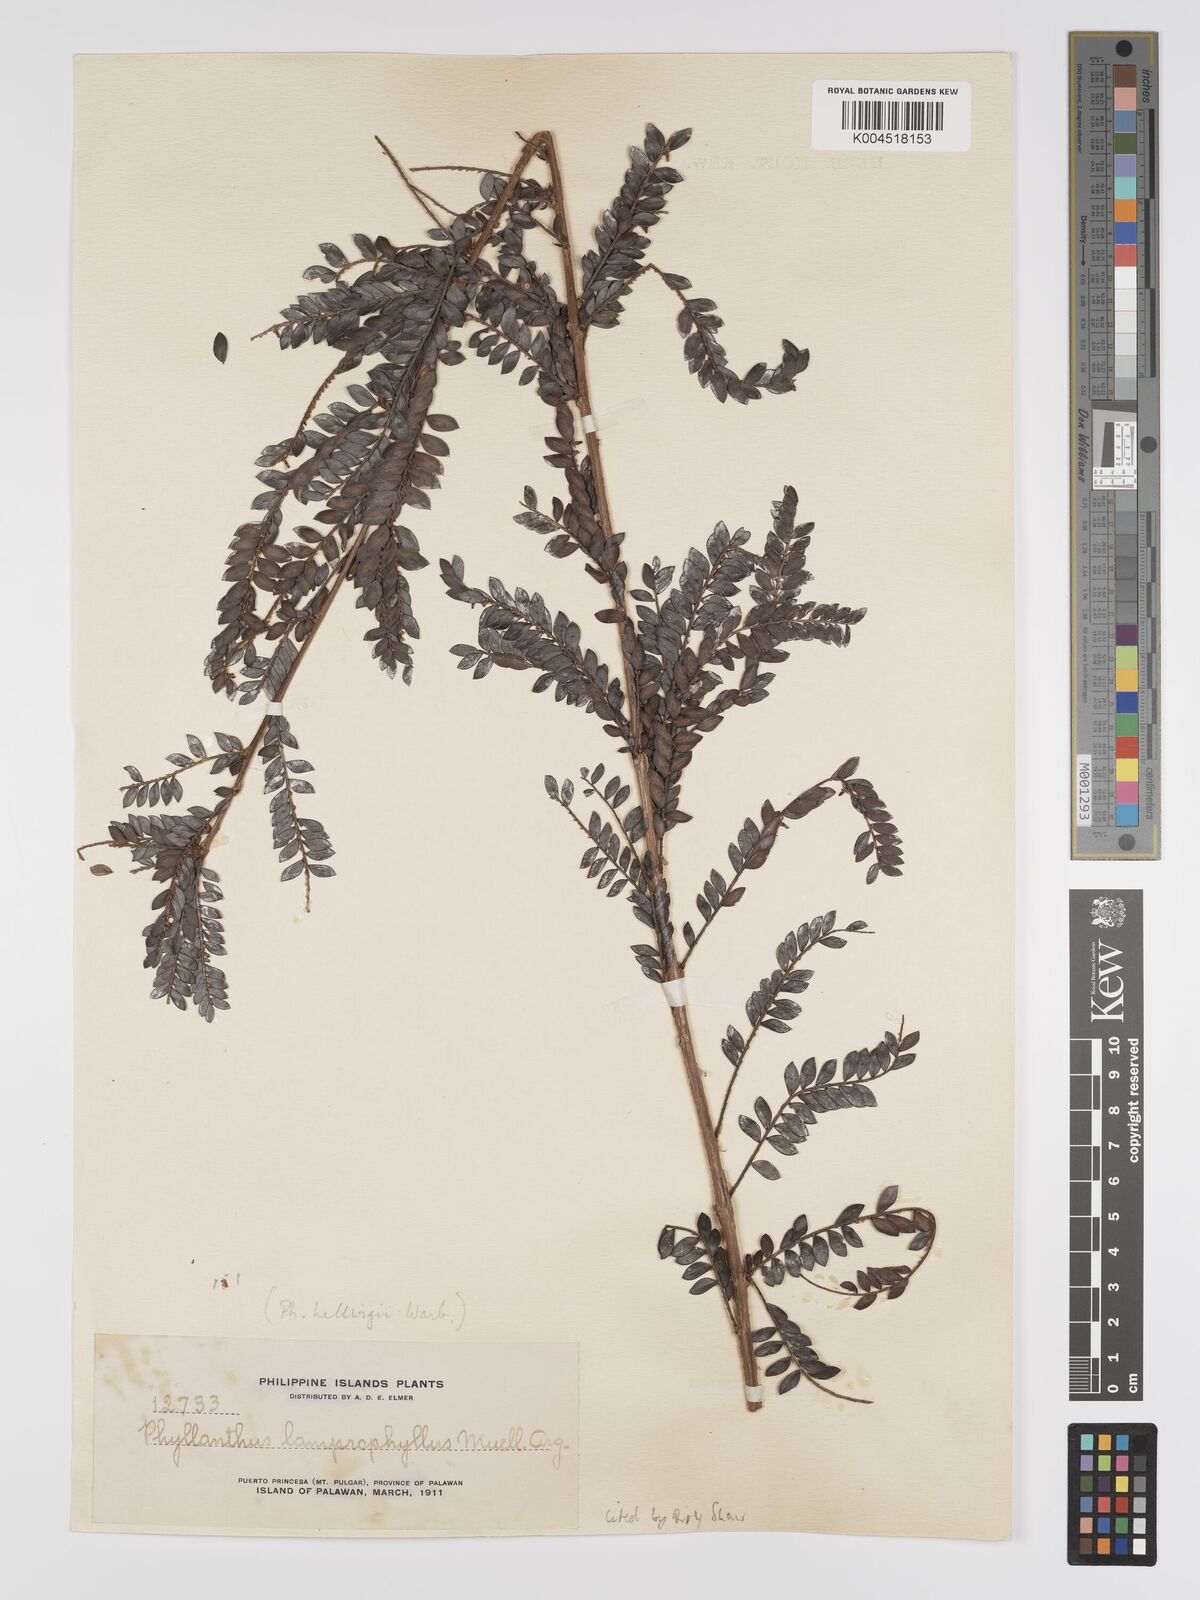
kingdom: Plantae
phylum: Tracheophyta
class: Magnoliopsida
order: Malpighiales
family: Phyllanthaceae
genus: Glochidion
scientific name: Glochidion lamprophyllum
